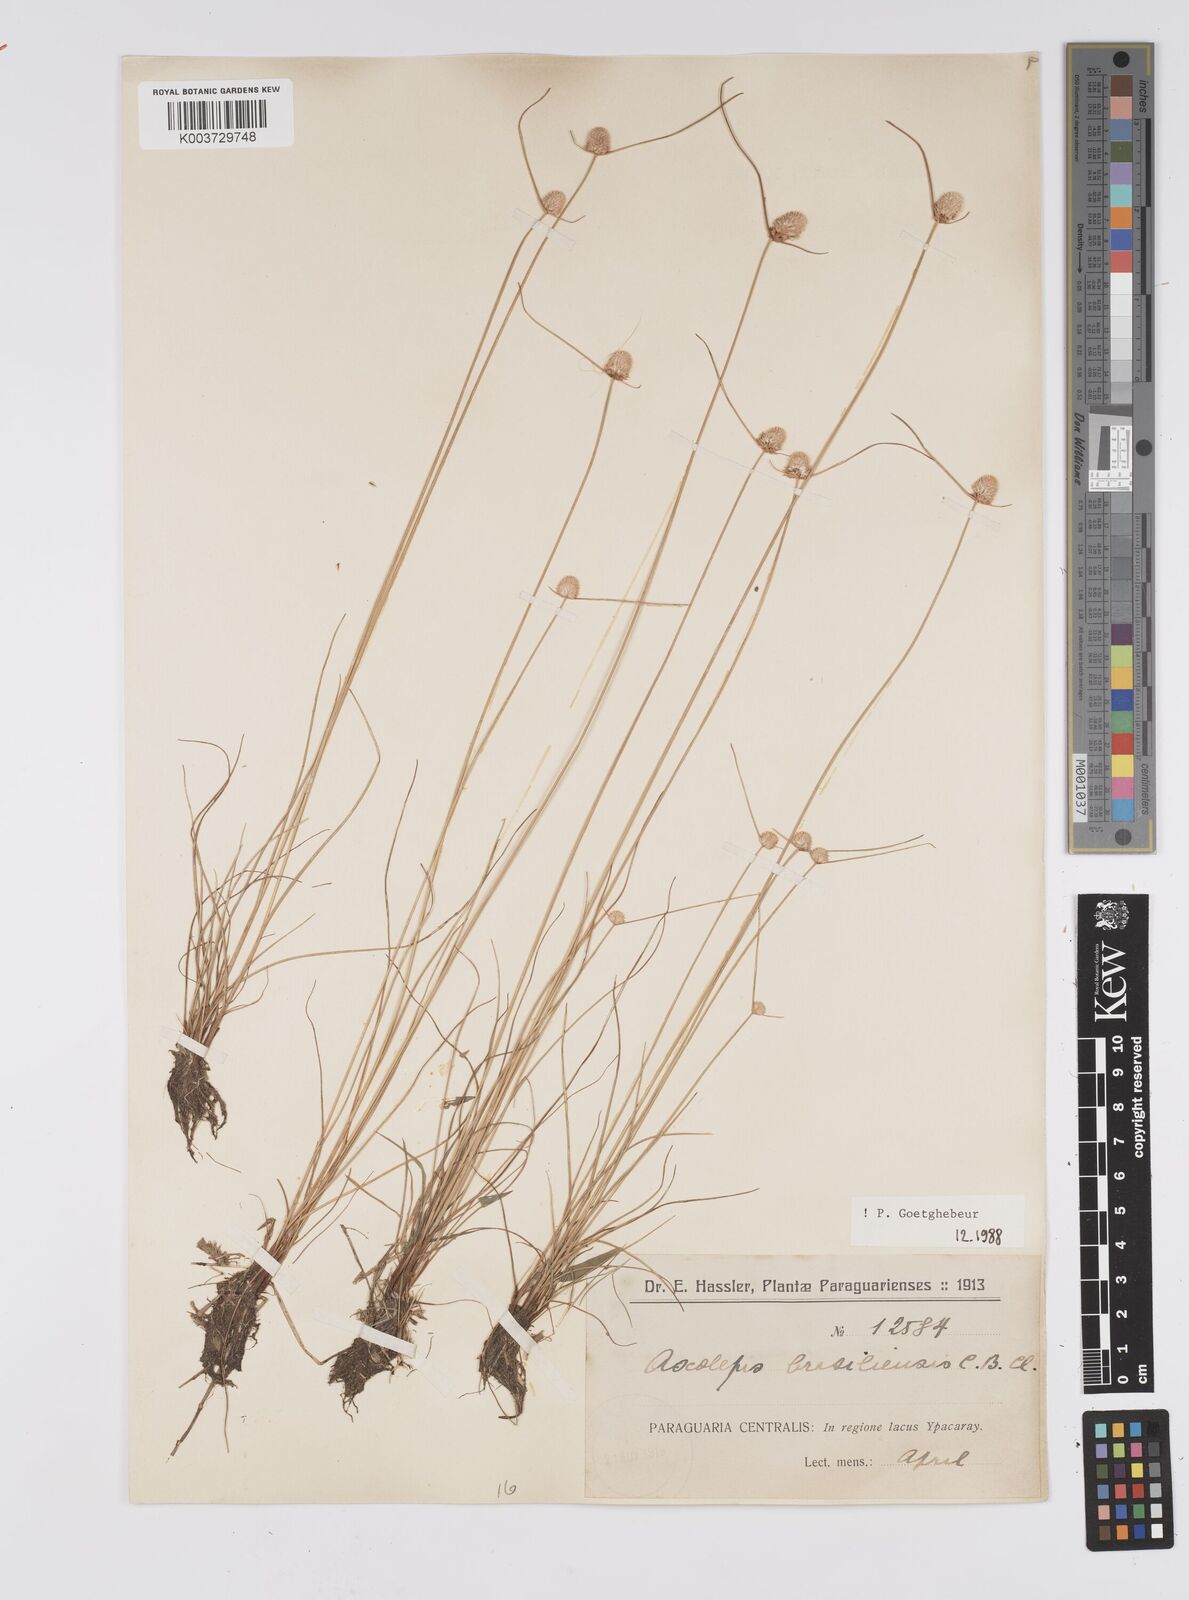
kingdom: Plantae
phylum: Tracheophyta
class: Liliopsida
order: Poales
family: Cyperaceae
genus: Cyperus
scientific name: Cyperus brasiliensis
